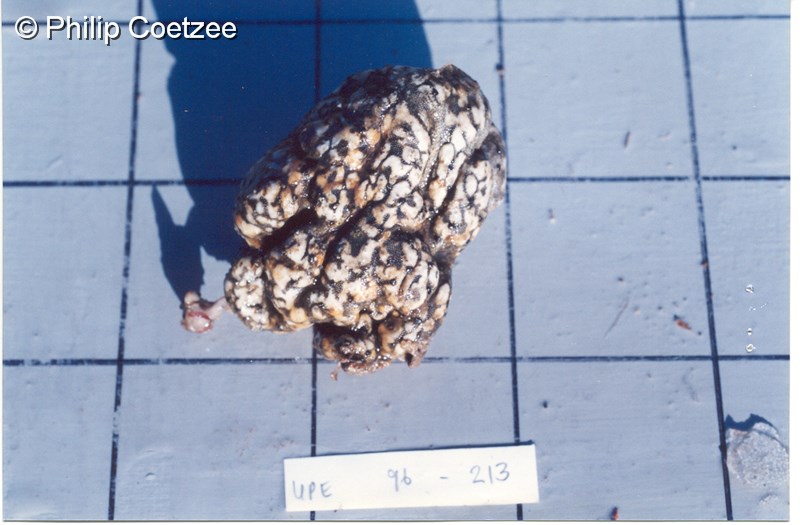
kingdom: Animalia
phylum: Chordata
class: Ascidiacea
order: Aplousobranchia
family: Didemnidae
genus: Trididemnum
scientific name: Trididemnum
